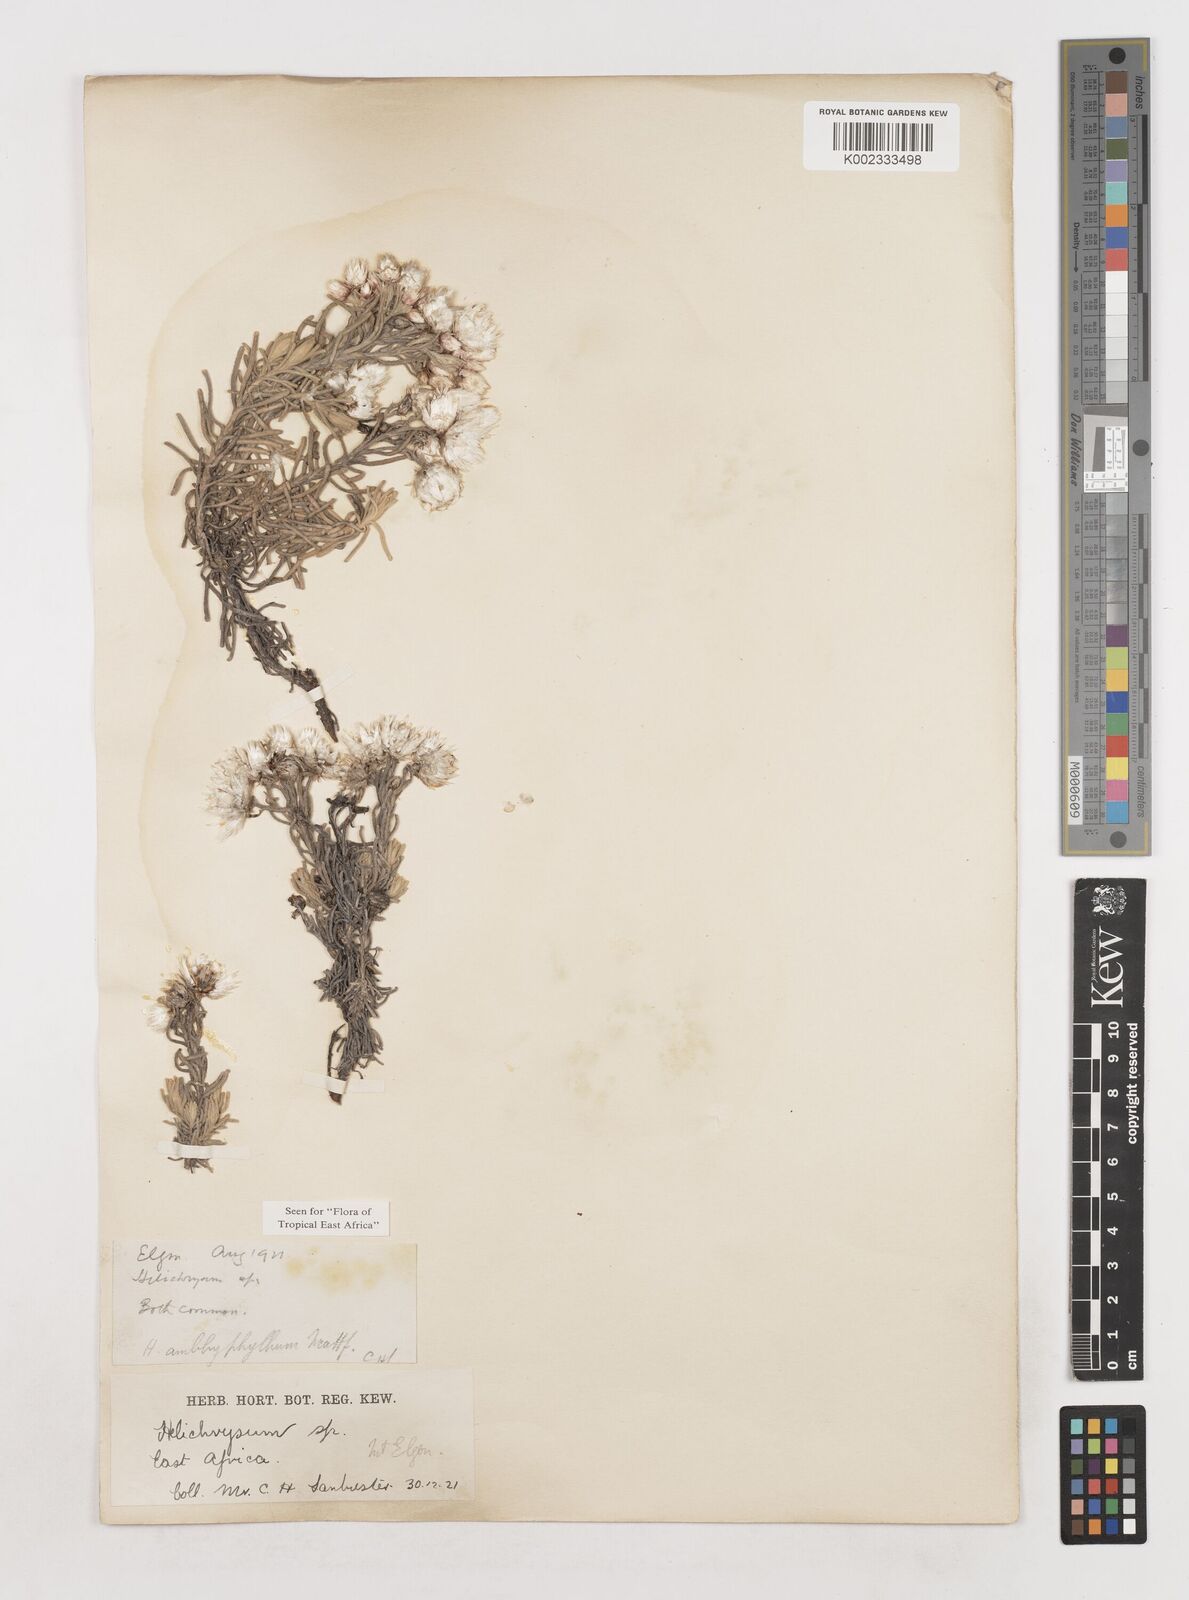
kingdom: Plantae
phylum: Tracheophyta
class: Magnoliopsida
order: Asterales
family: Asteraceae
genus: Helichrysum
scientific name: Helichrysum amblyphyllum
